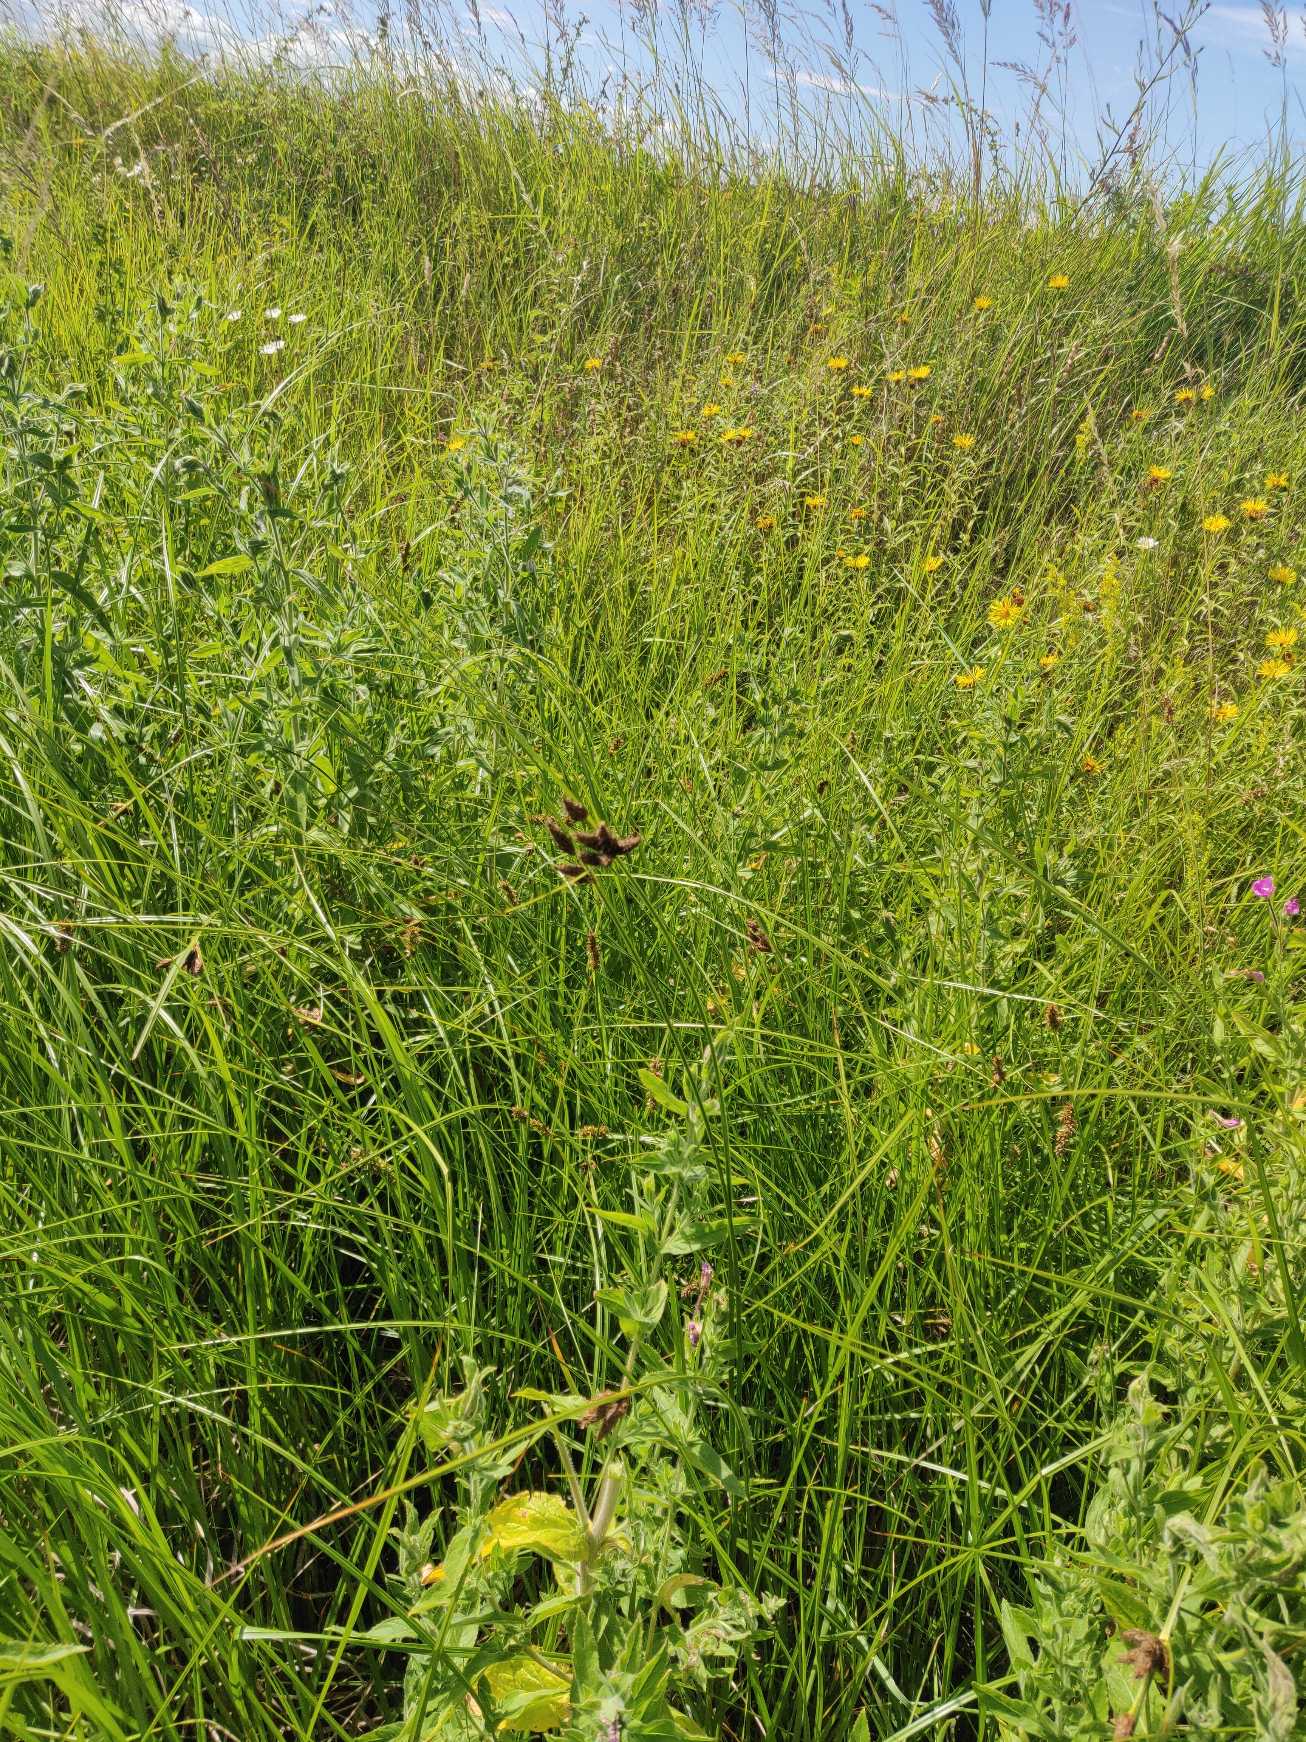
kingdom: Plantae
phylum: Tracheophyta
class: Liliopsida
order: Poales
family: Cyperaceae
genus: Bolboschoenus
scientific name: Bolboschoenus maritimus
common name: Strand-kogleaks
